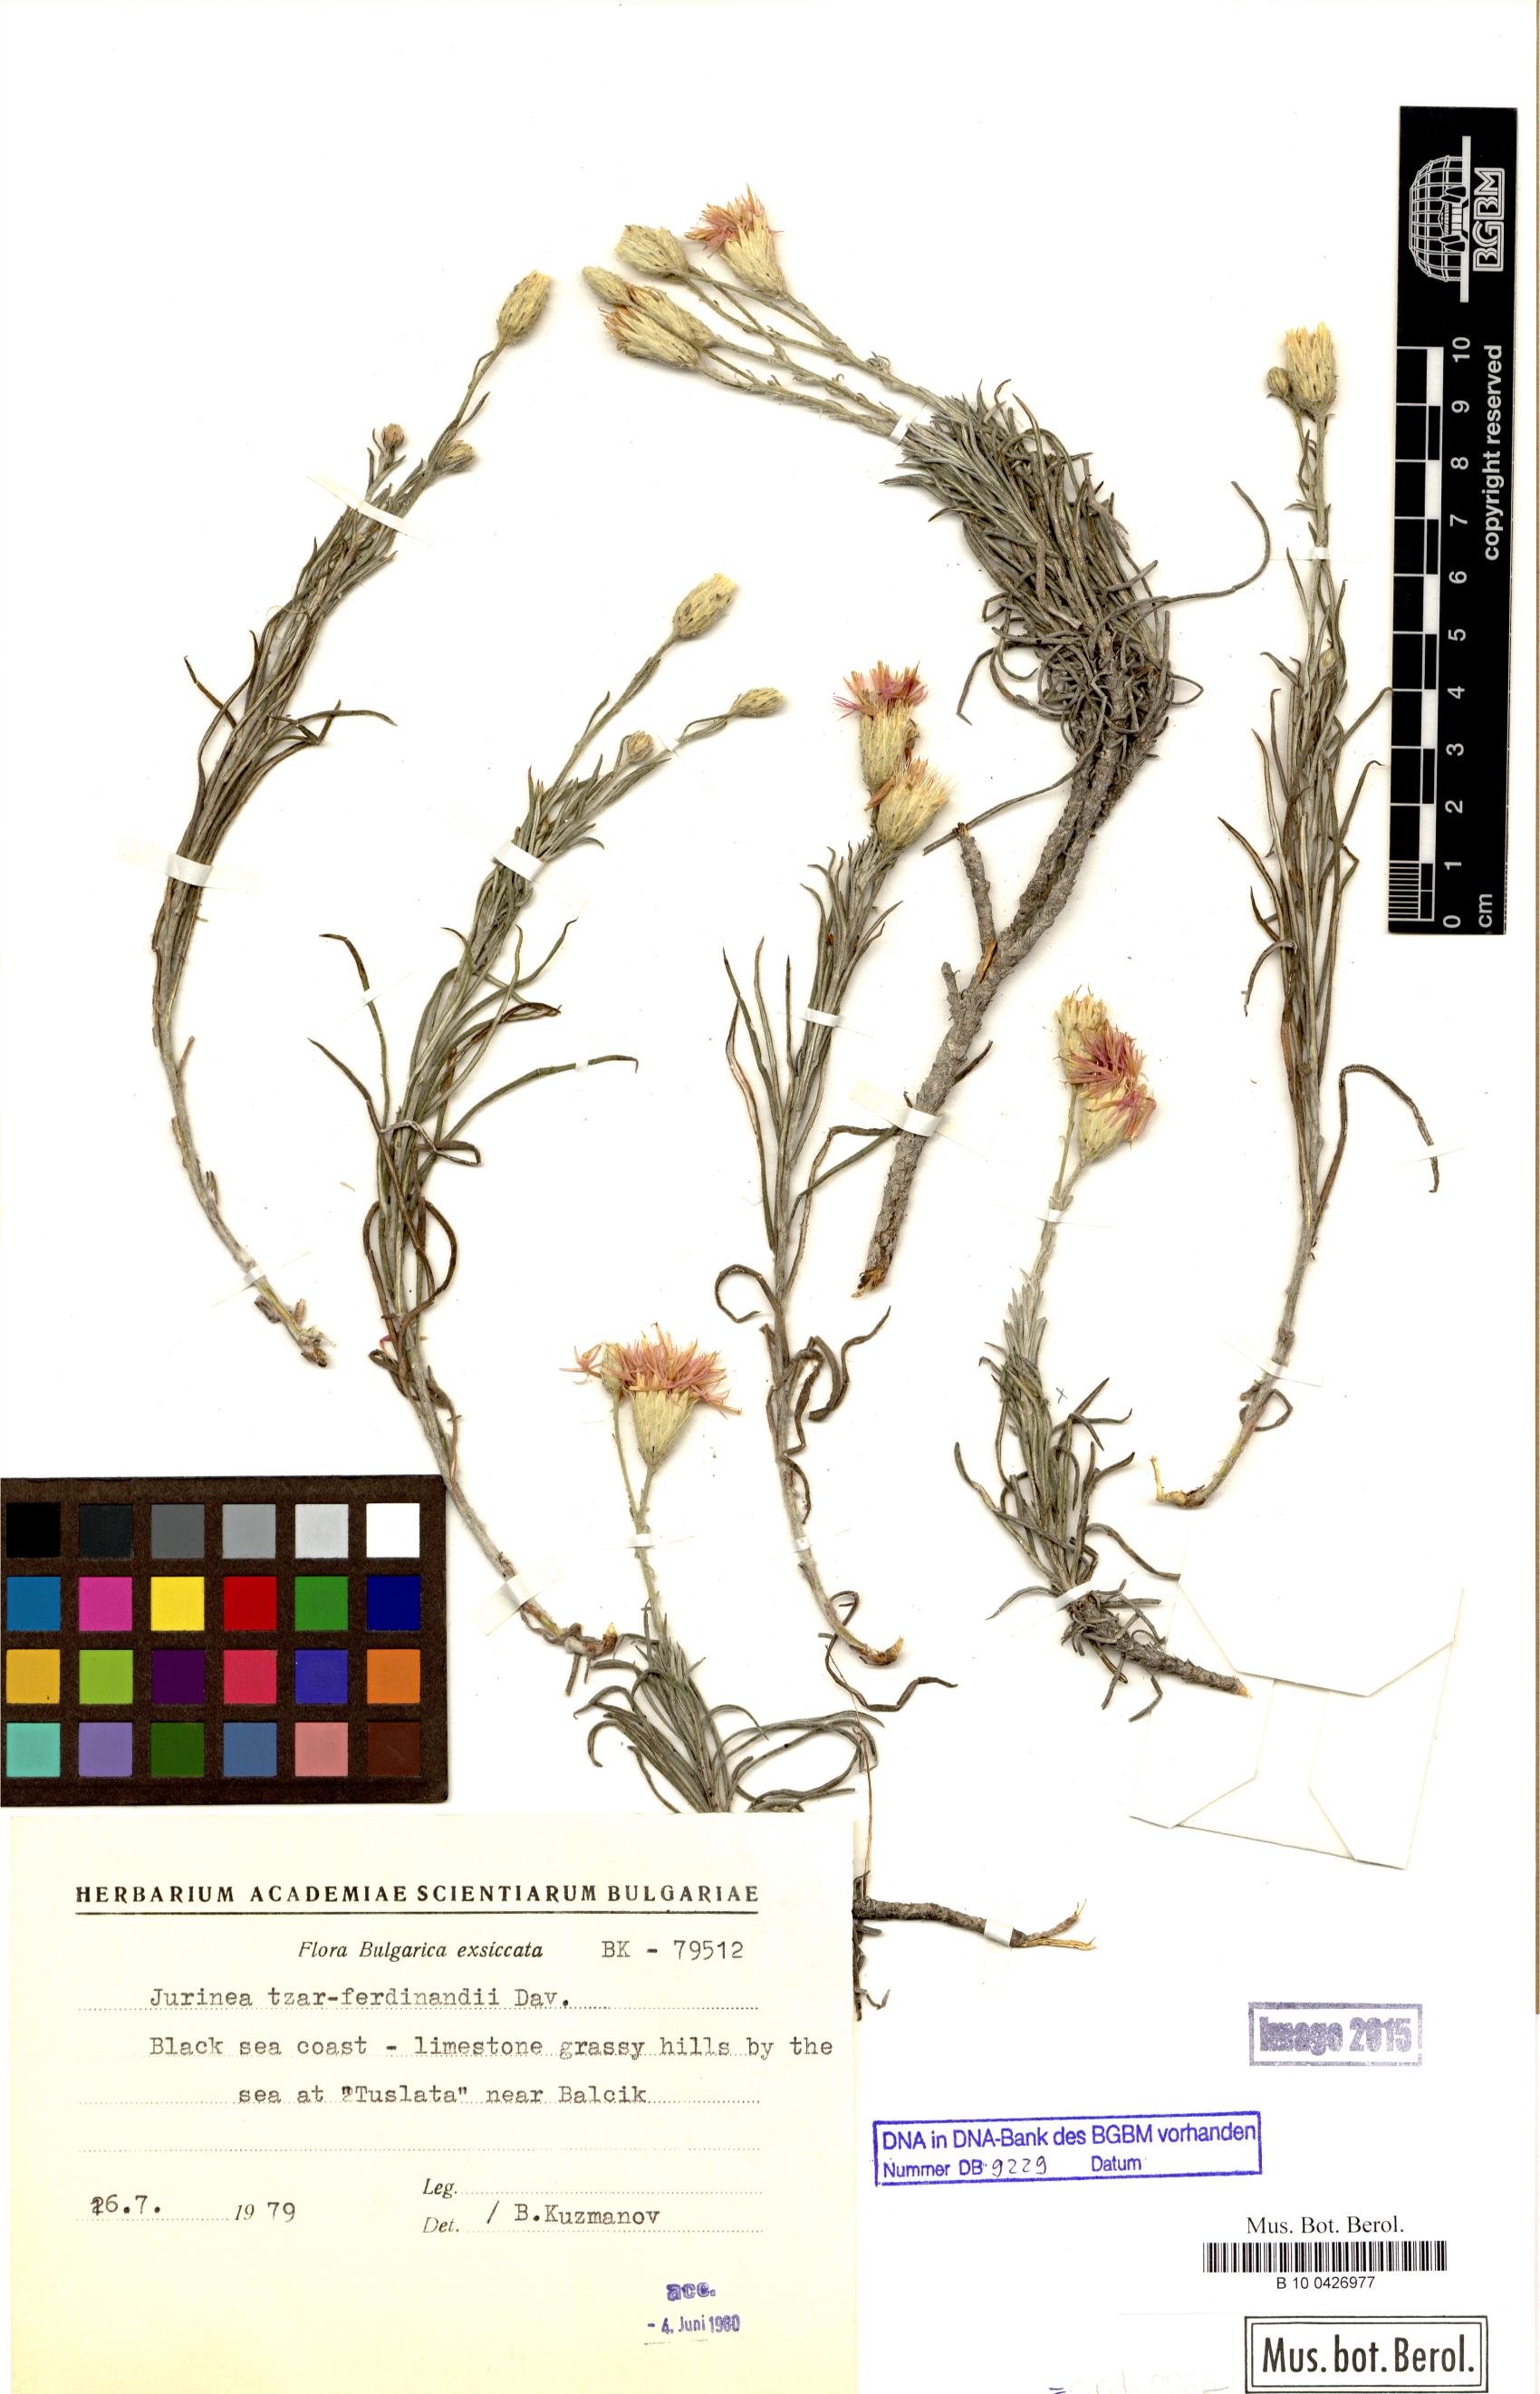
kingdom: Plantae
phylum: Tracheophyta
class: Magnoliopsida
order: Asterales
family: Asteraceae
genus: Jurinea
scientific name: Jurinea tzar-ferdinandii
